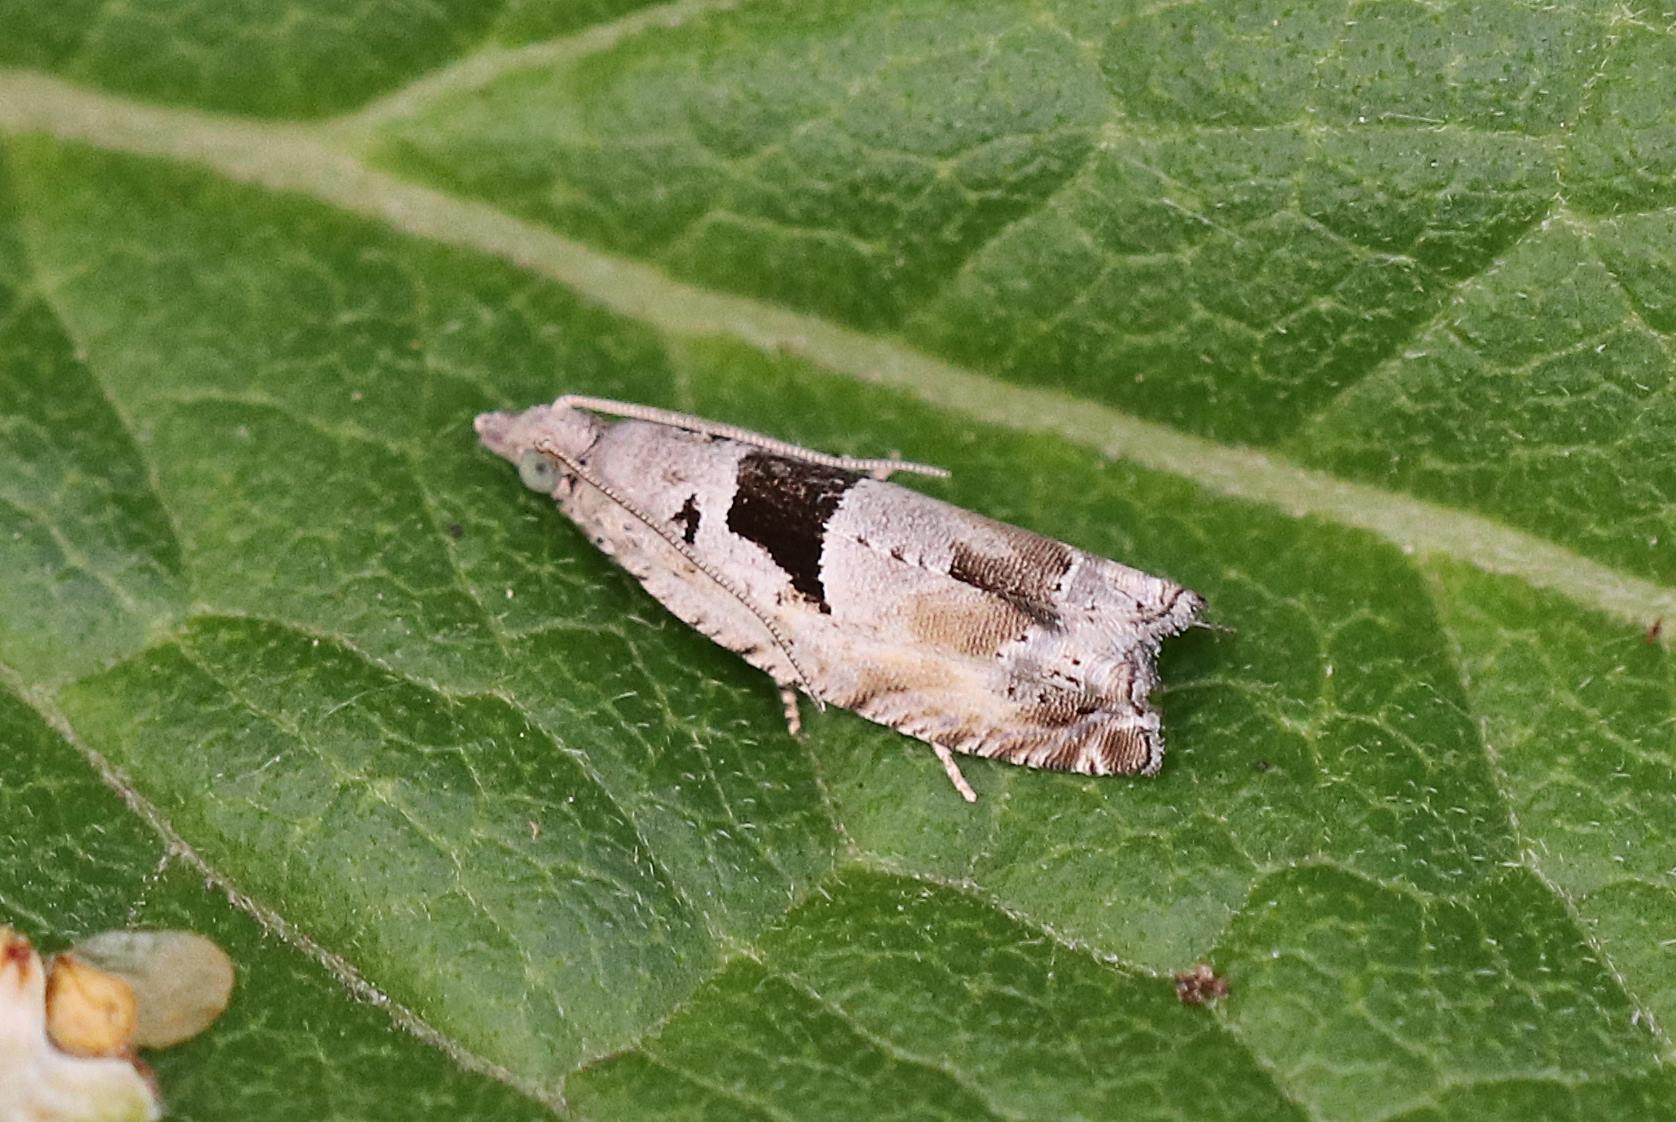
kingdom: Animalia
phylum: Arthropoda
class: Insecta
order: Lepidoptera
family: Tortricidae
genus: Epinotia
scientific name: Epinotia ramella
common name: Birkerullevikler
